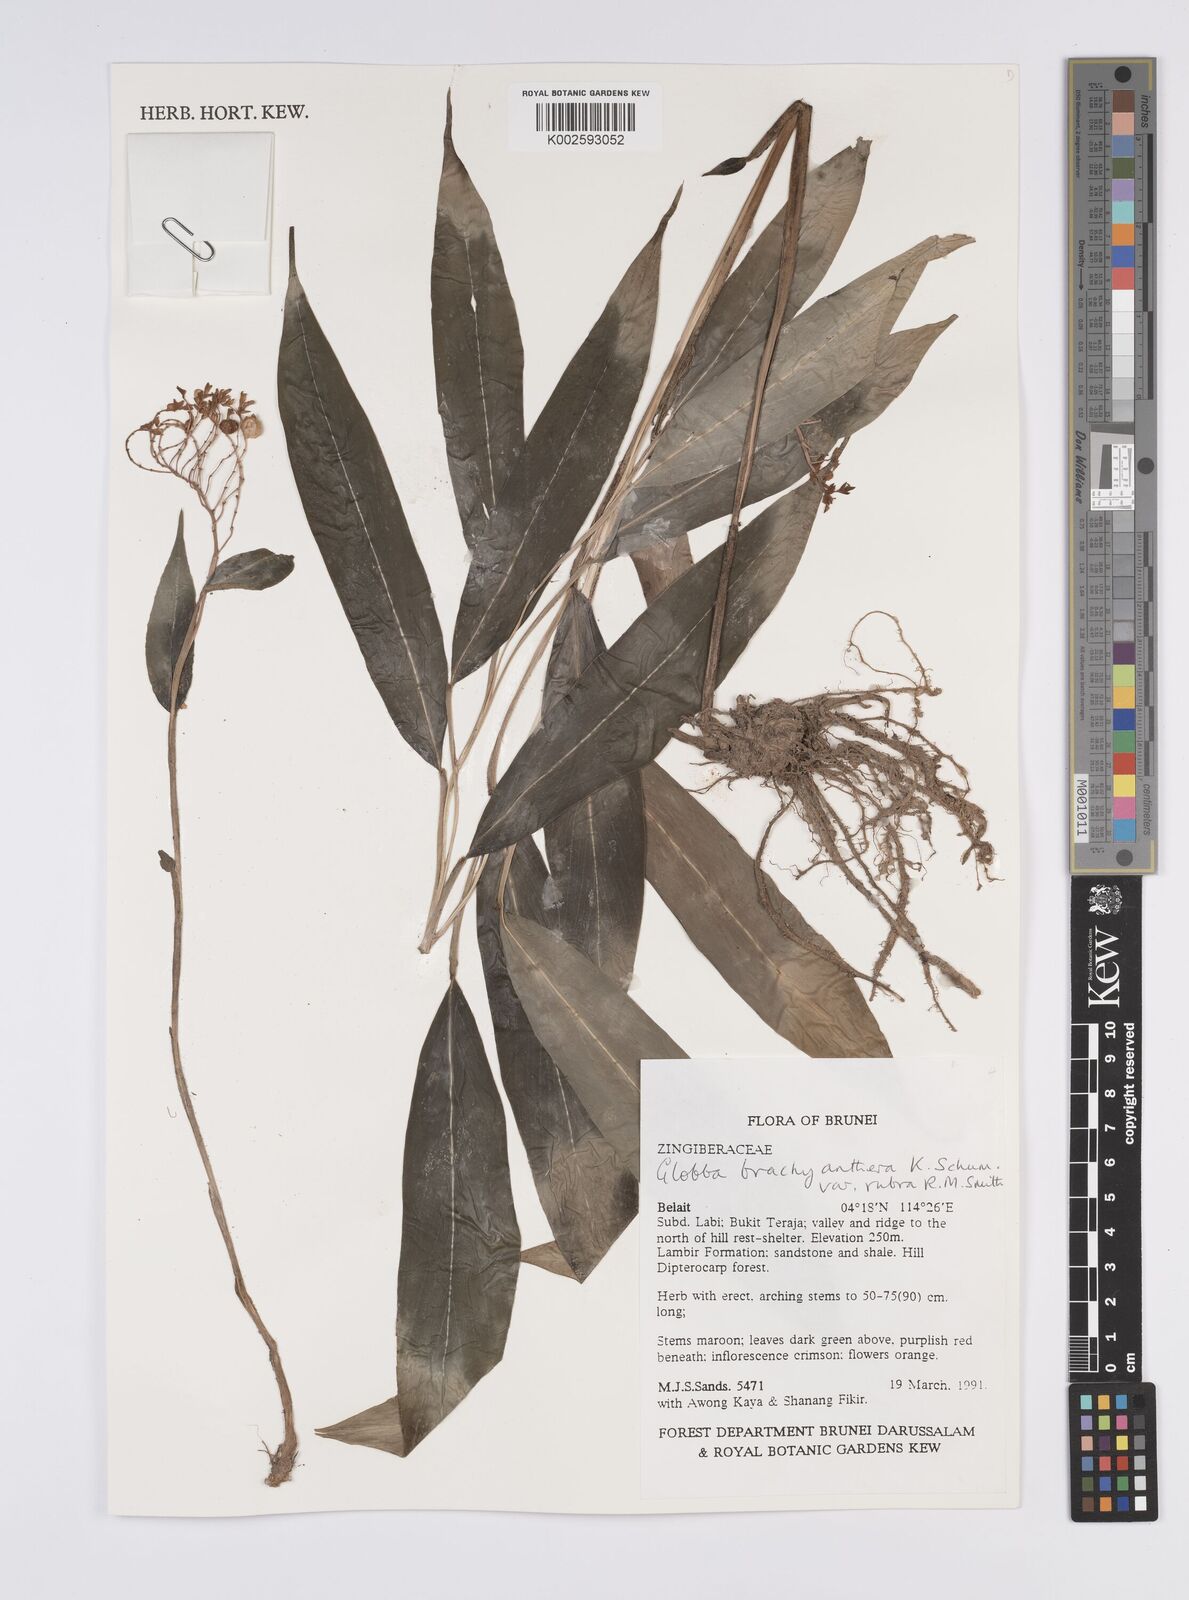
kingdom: Plantae
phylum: Tracheophyta
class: Liliopsida
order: Zingiberales
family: Zingiberaceae
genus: Globba
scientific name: Globba brachyanthera
